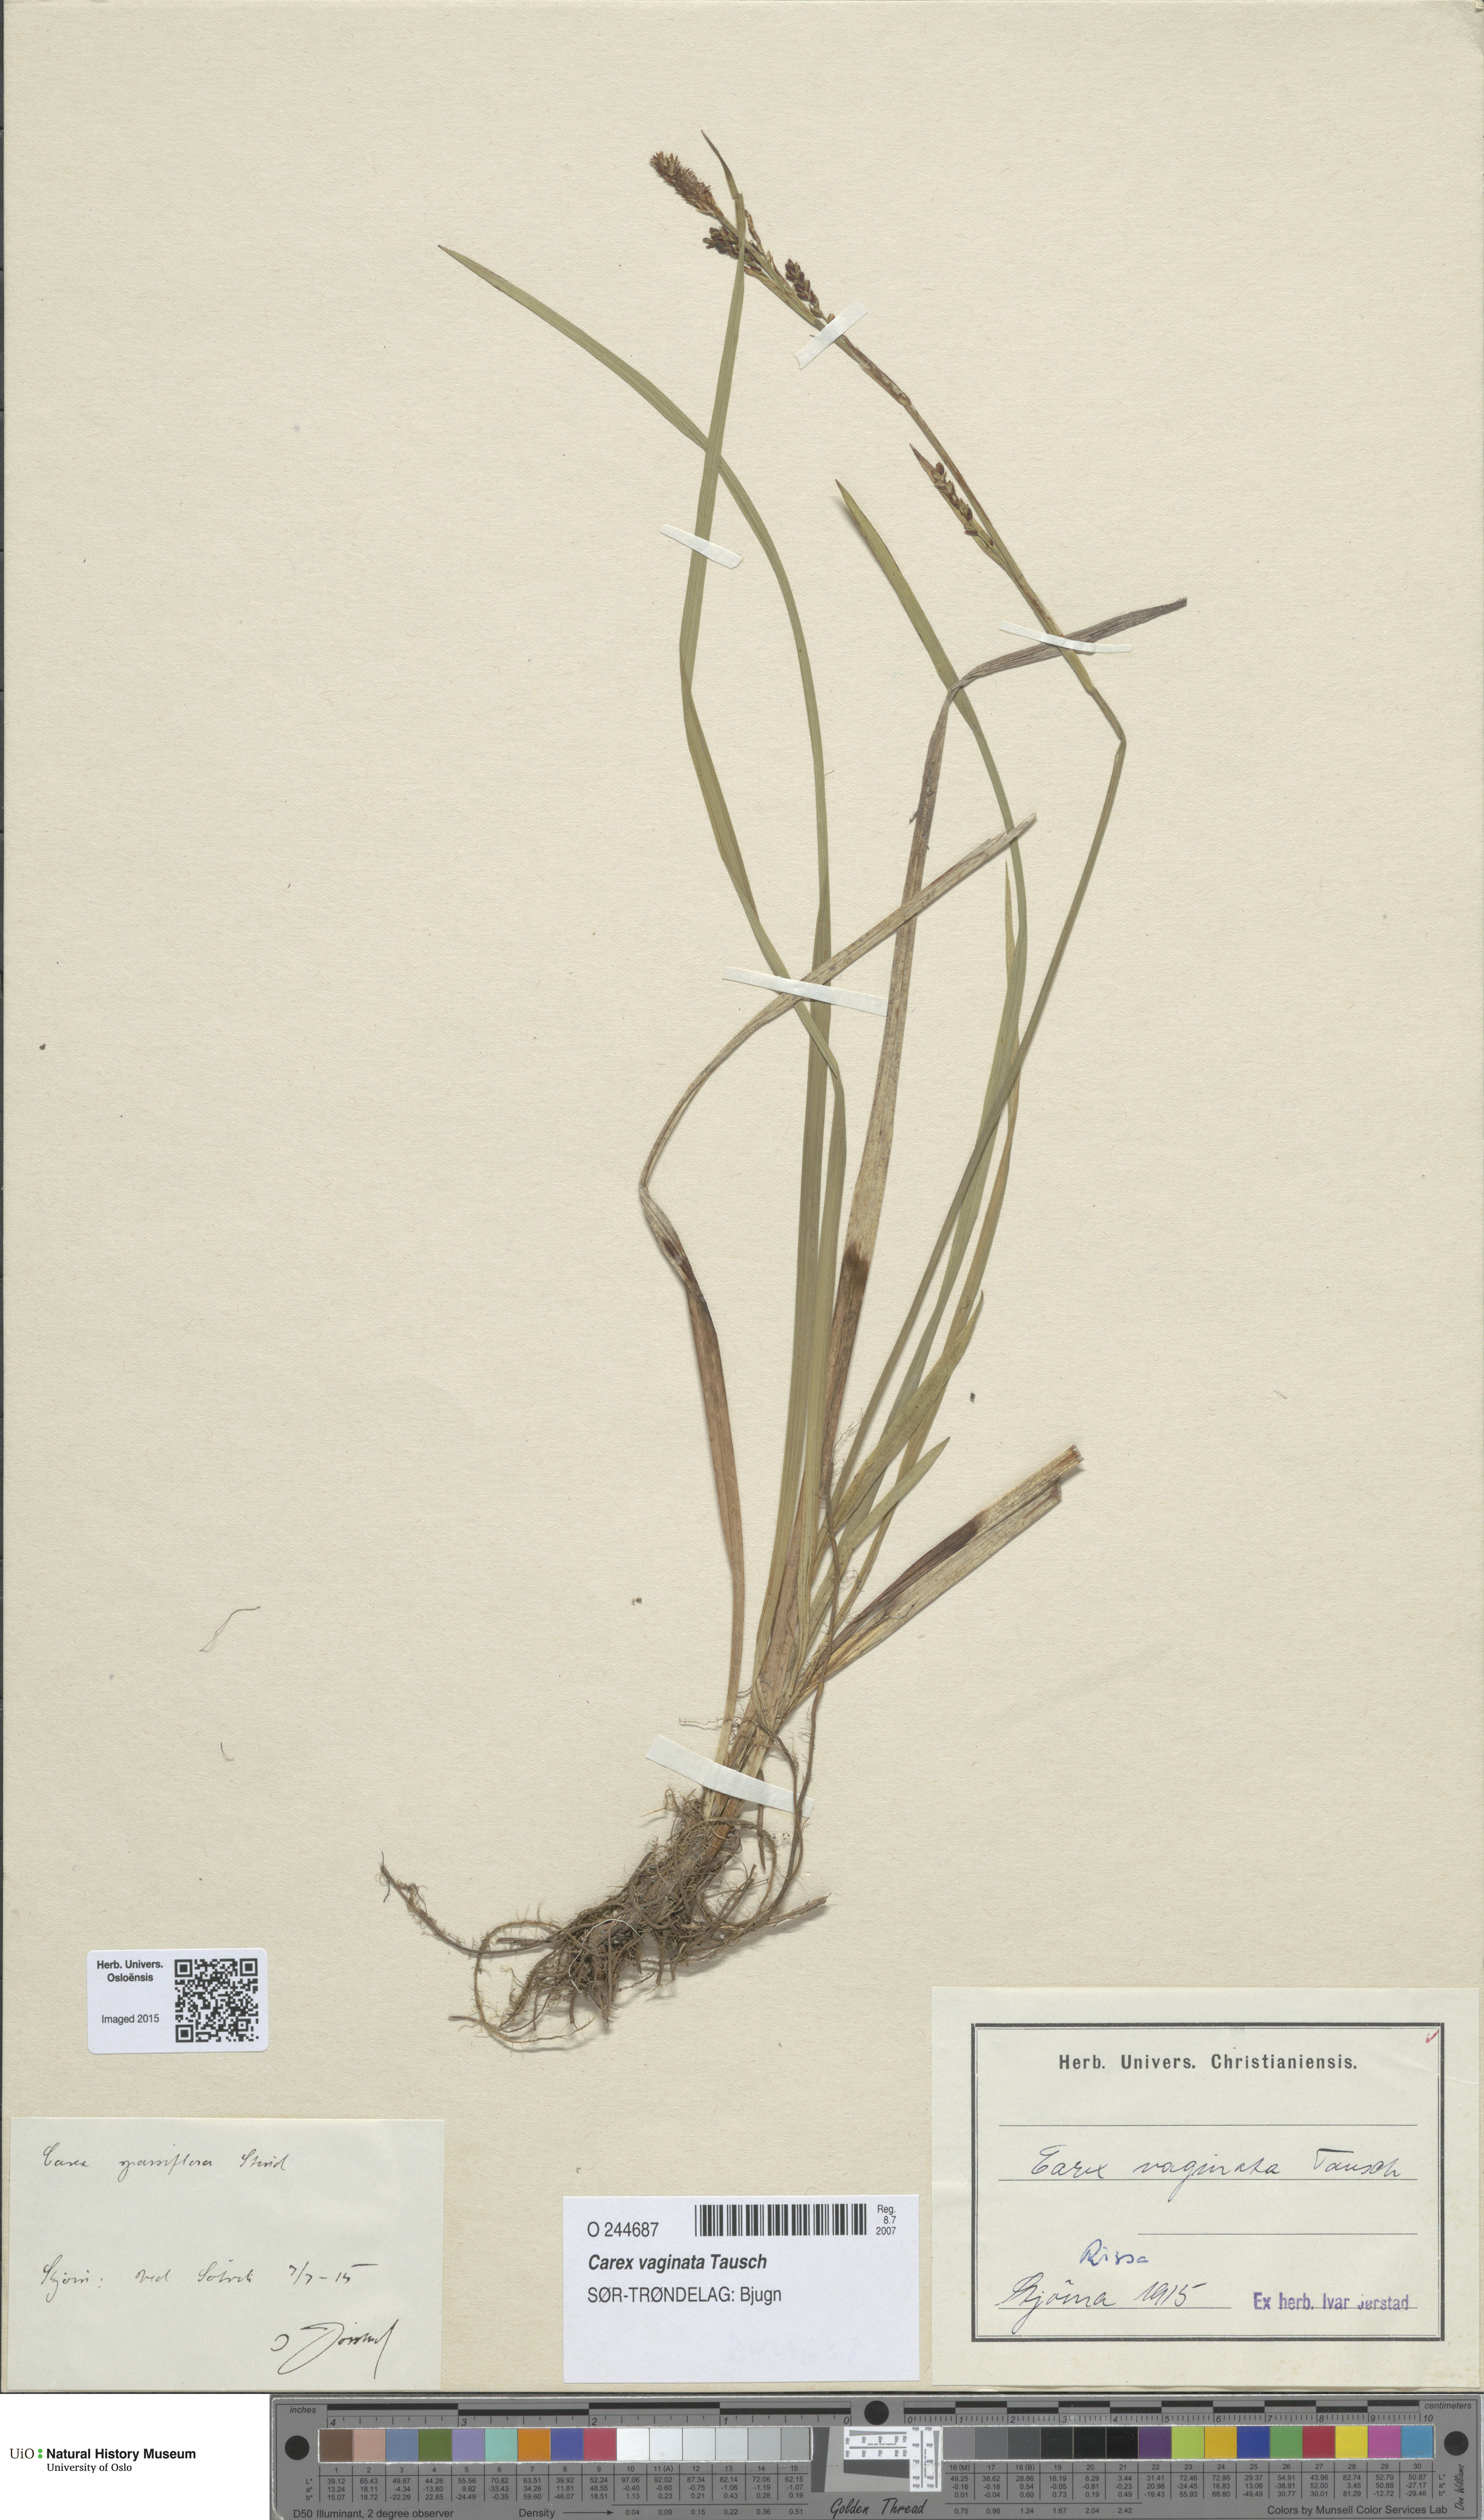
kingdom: Plantae
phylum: Tracheophyta
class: Liliopsida
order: Poales
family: Cyperaceae
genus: Carex
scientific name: Carex vaginata
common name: Sheathed sedge
